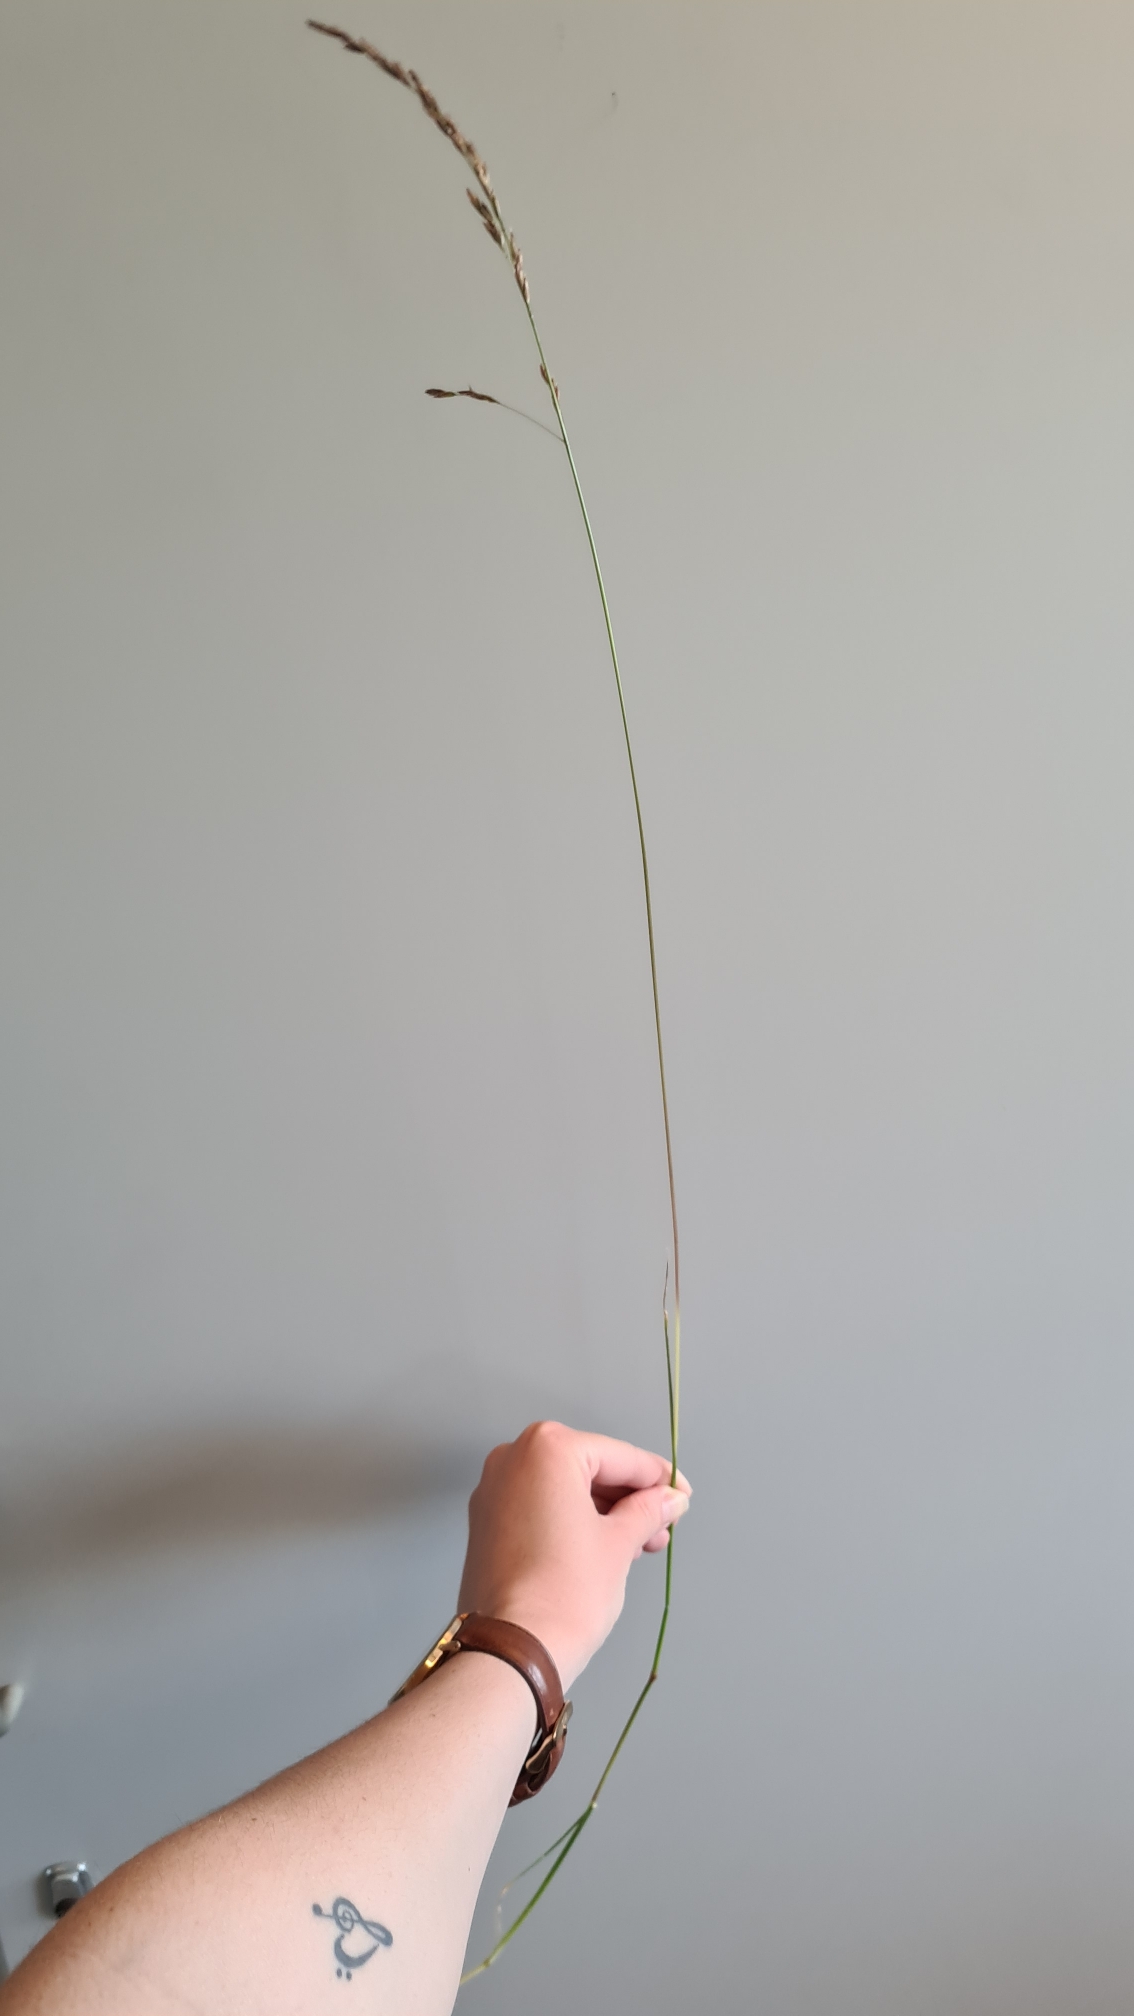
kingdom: Plantae
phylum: Tracheophyta
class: Liliopsida
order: Poales
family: Poaceae
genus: Lolium
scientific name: Lolium arundinaceum
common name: Strand-svingel
